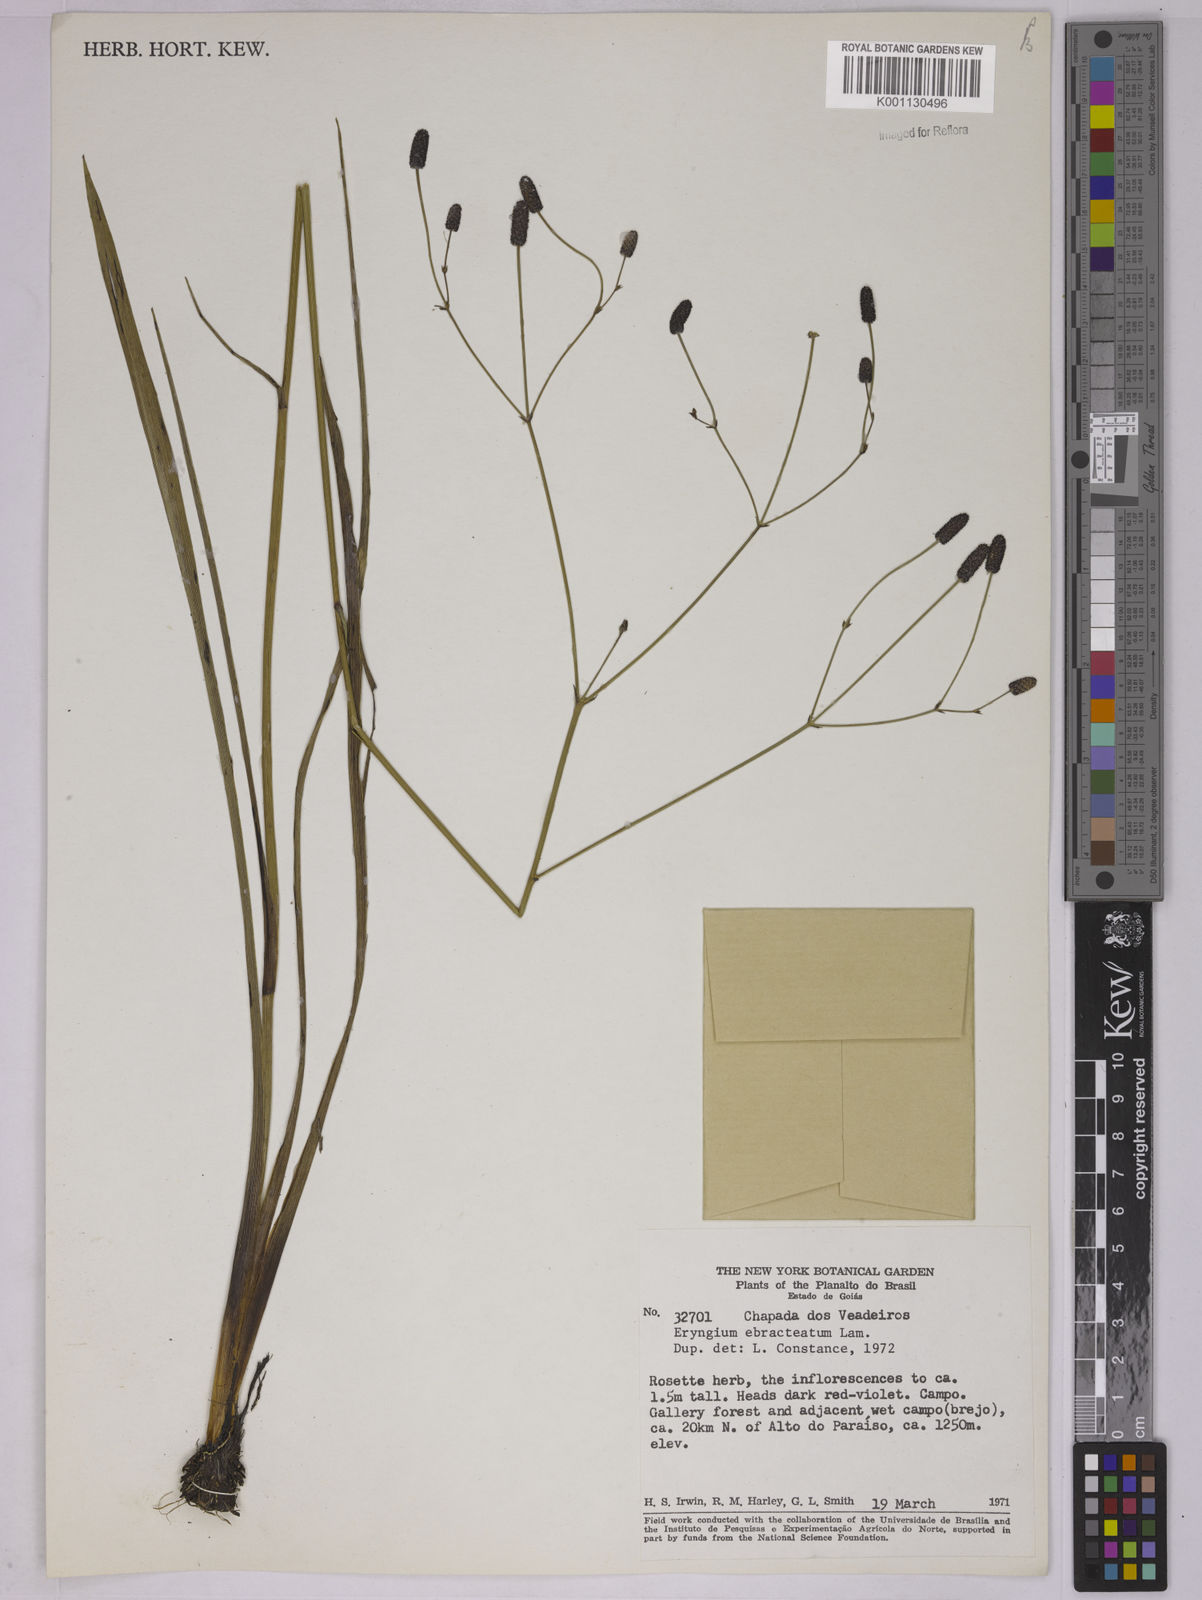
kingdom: Plantae
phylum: Tracheophyta
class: Magnoliopsida
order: Apiales
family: Apiaceae
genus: Eryngium
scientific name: Eryngium ebracteatum
